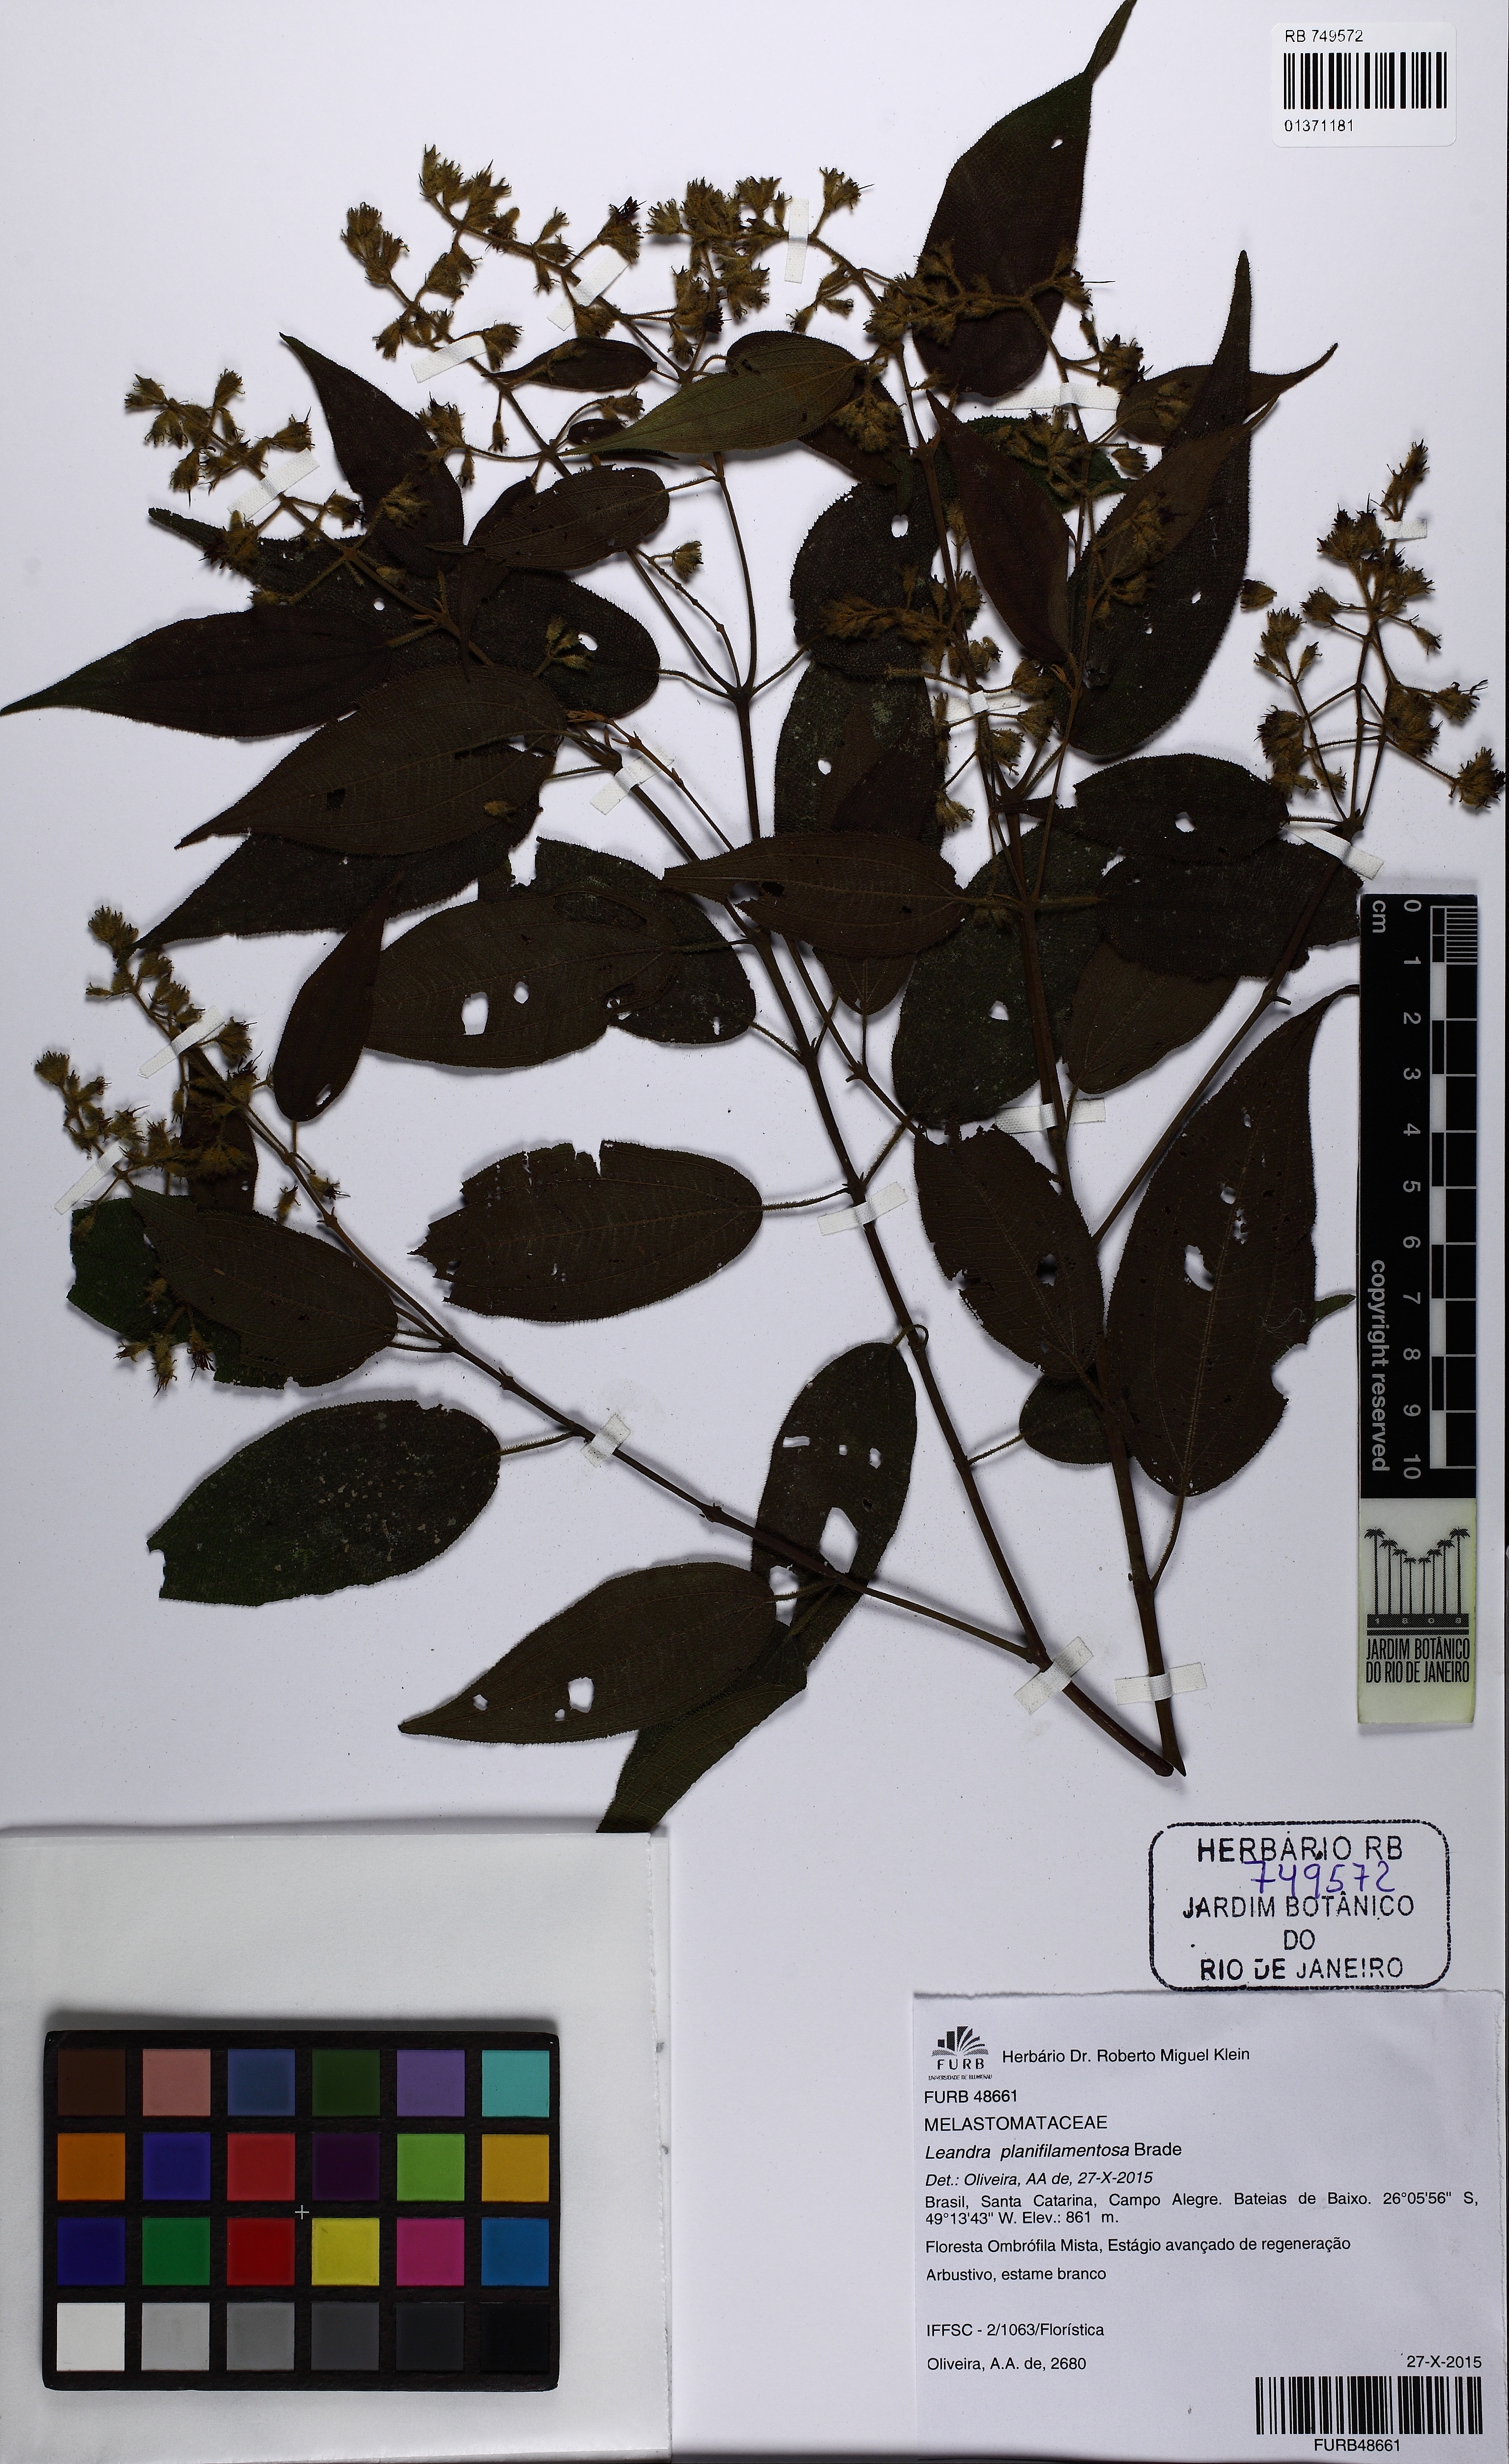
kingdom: Plantae
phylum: Tracheophyta
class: Magnoliopsida
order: Myrtales
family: Melastomataceae
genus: Miconia
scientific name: Miconia planifilamentosa
